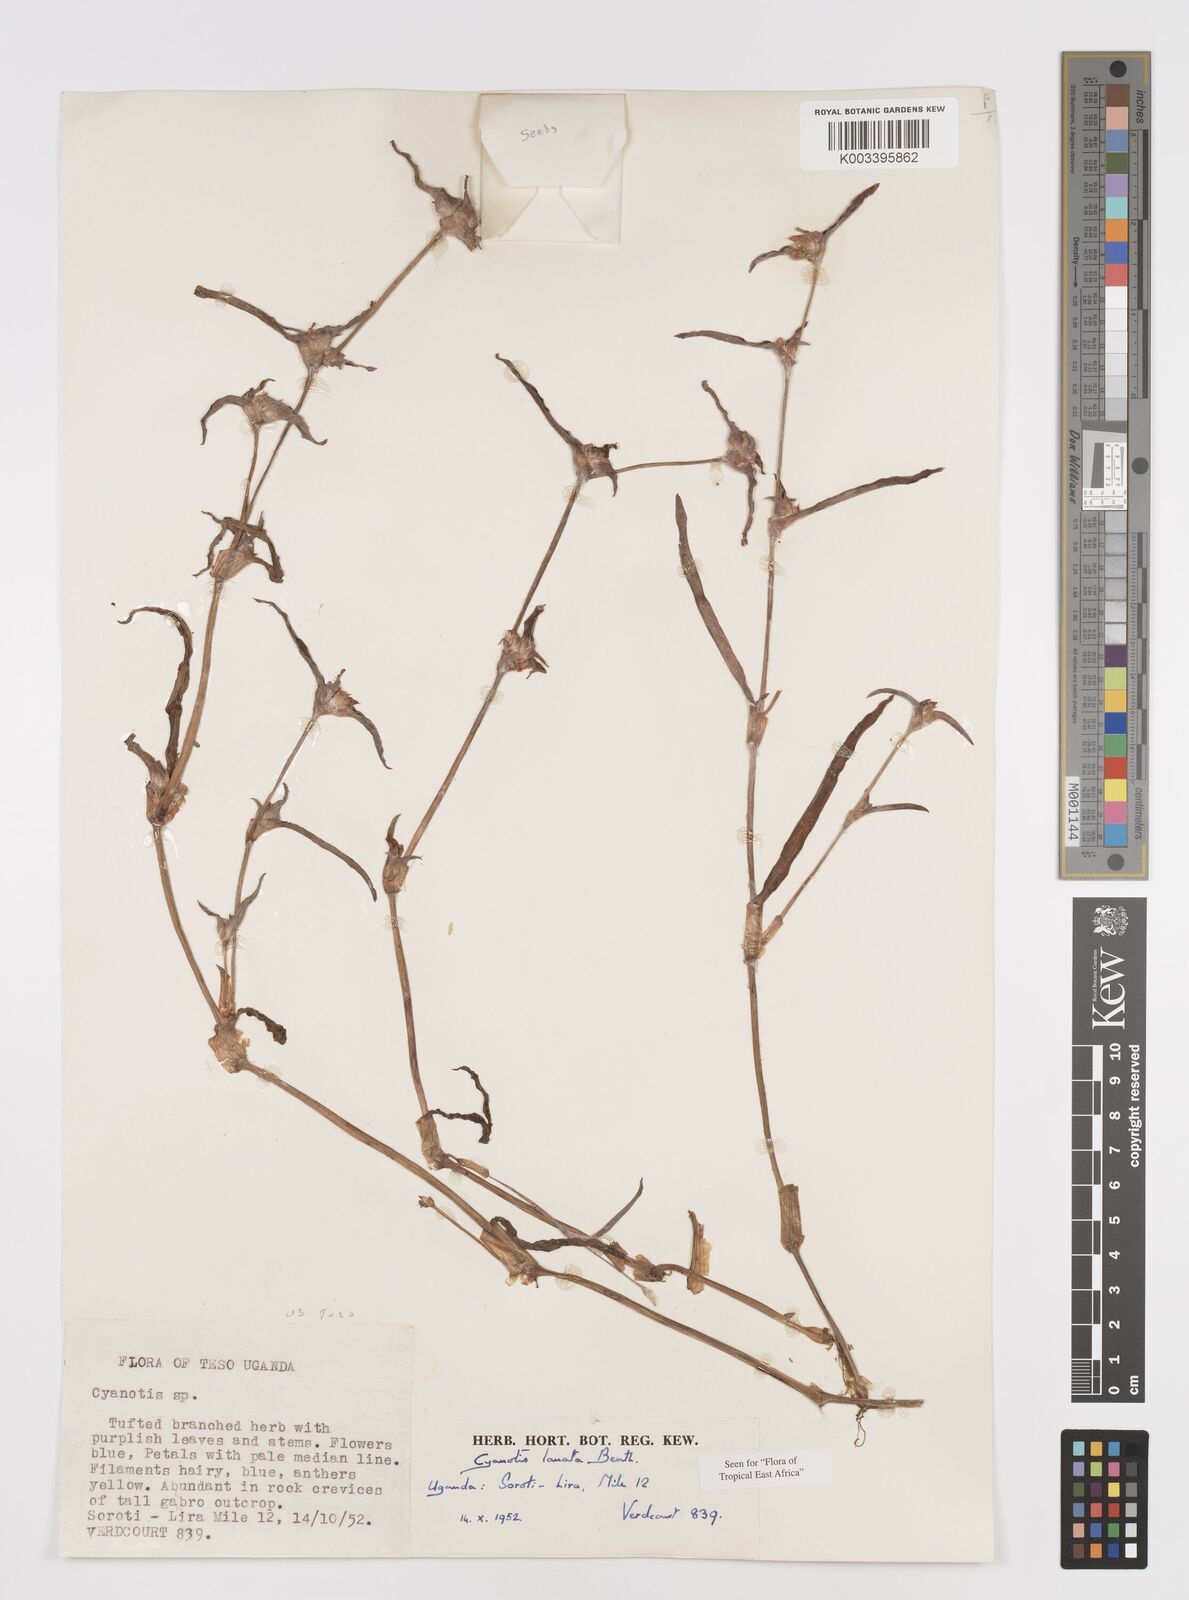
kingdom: Plantae
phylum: Tracheophyta
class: Liliopsida
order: Commelinales
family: Commelinaceae
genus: Cyanotis
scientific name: Cyanotis lanata
